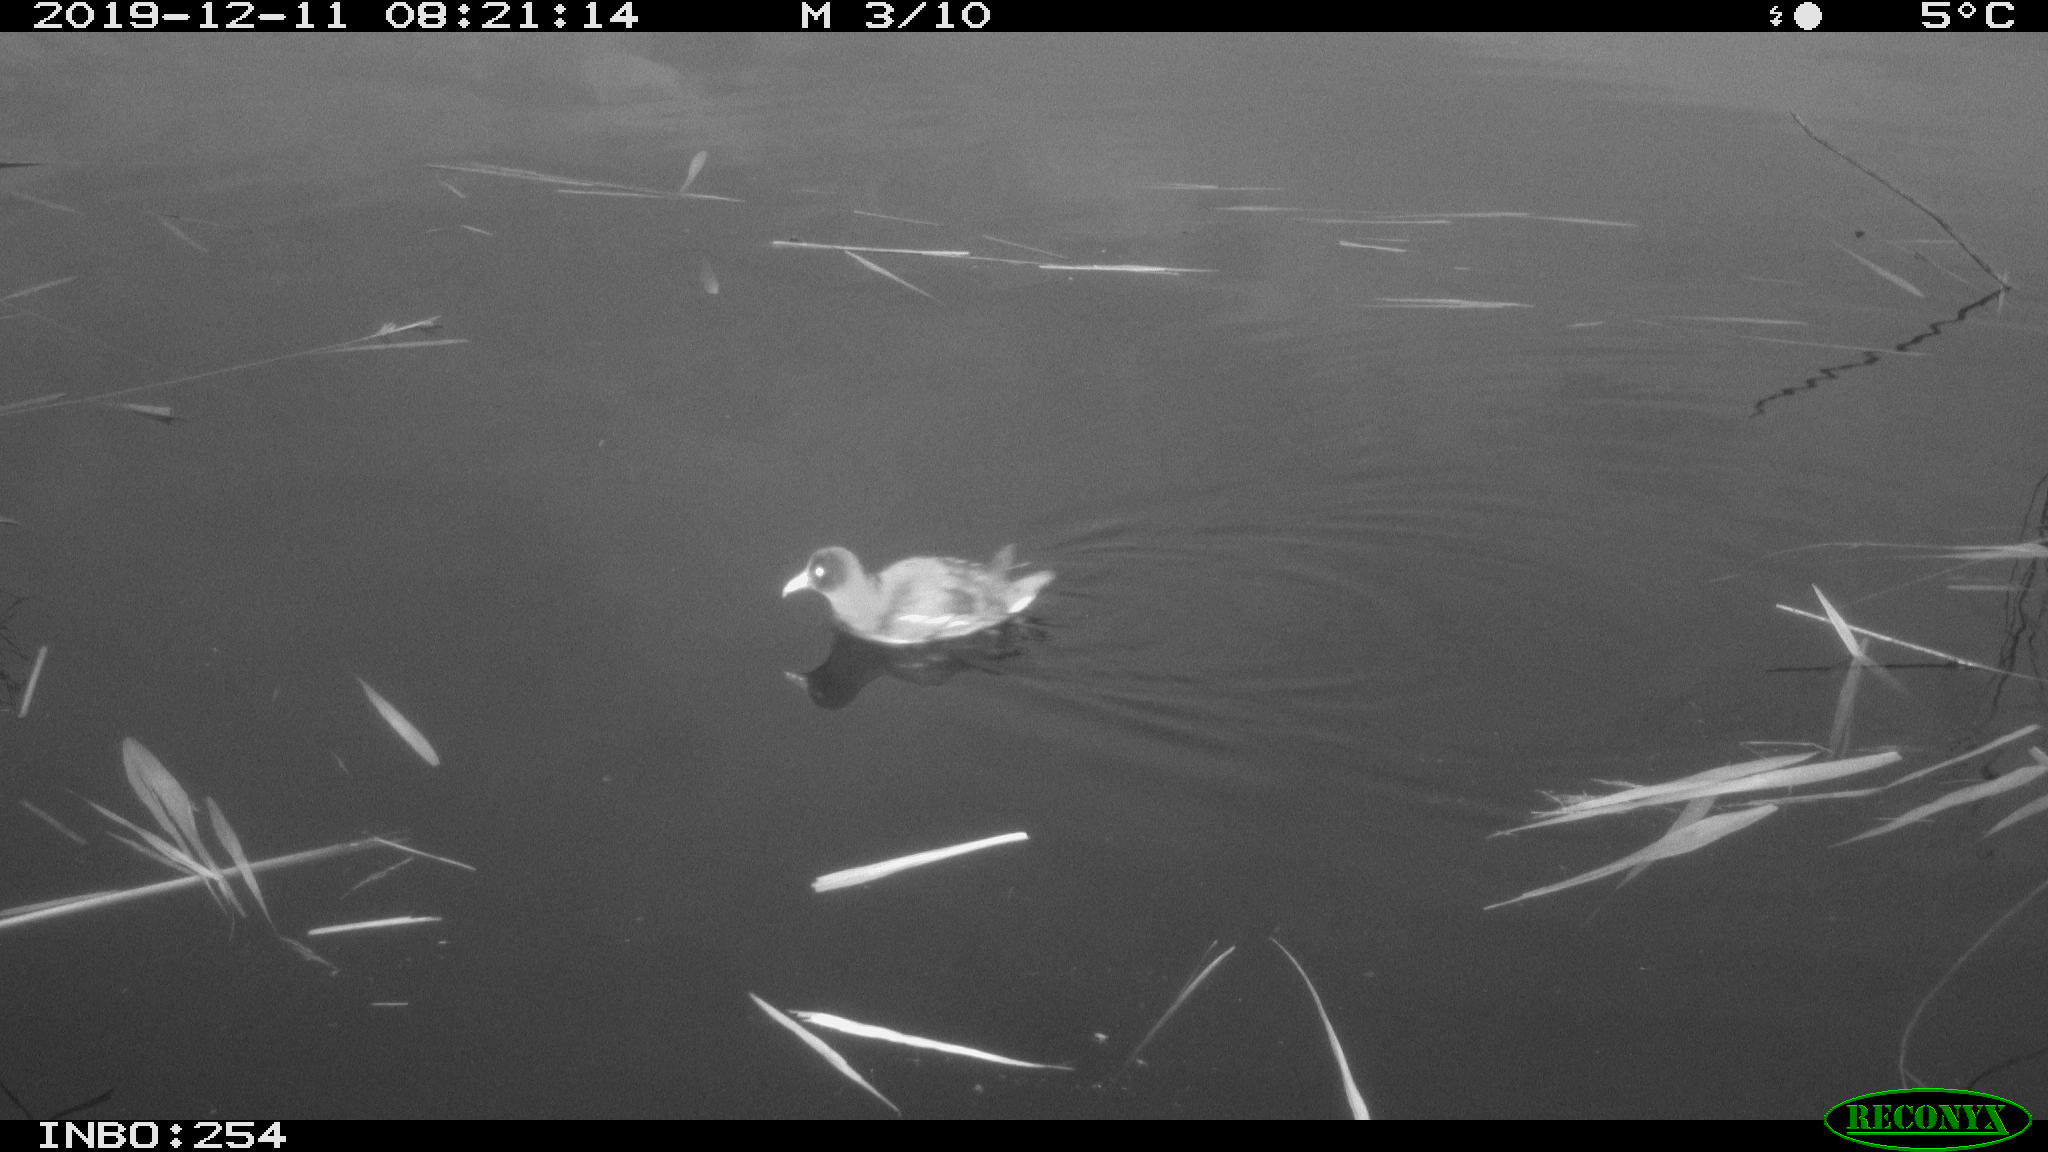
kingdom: Animalia
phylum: Chordata
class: Aves
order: Gruiformes
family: Rallidae
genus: Gallinula
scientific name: Gallinula chloropus
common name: Common moorhen
